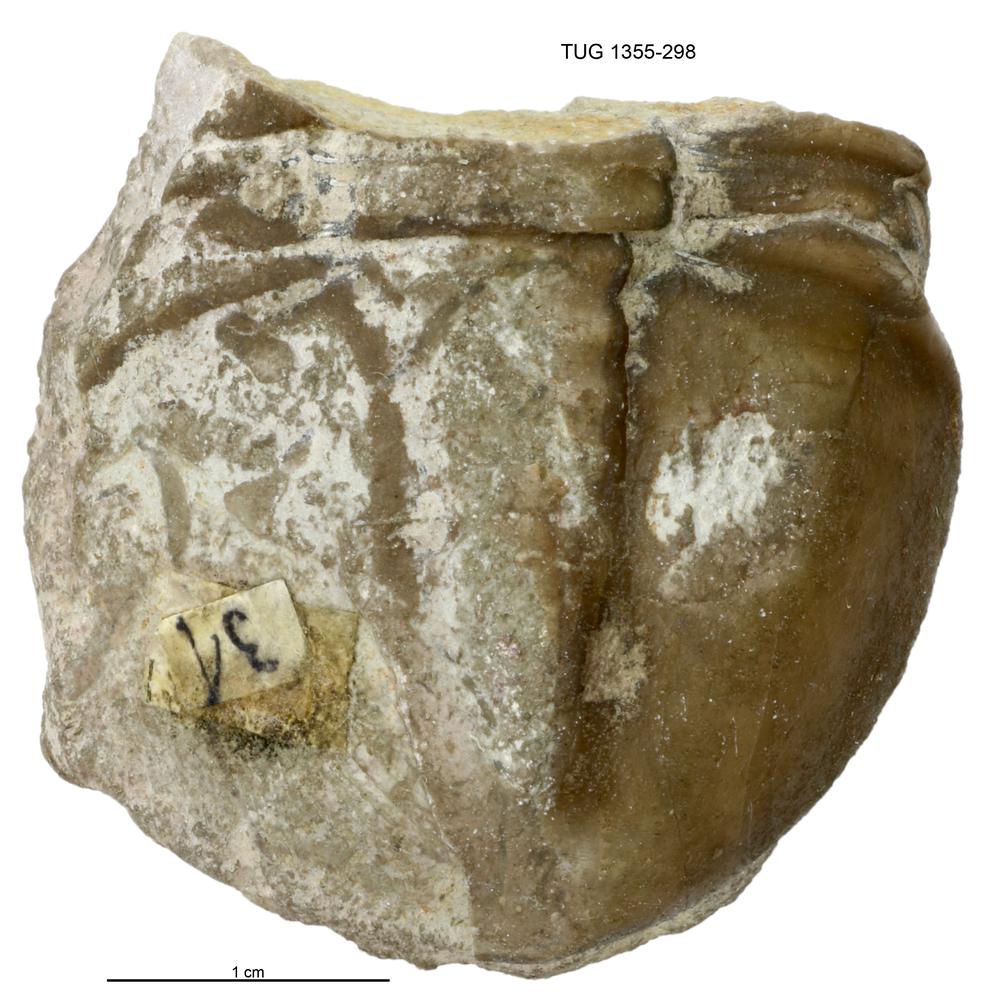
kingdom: Animalia
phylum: Arthropoda
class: Trilobita
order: Corynexochida
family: Illaenidae
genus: Illaenus
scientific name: Illaenus
